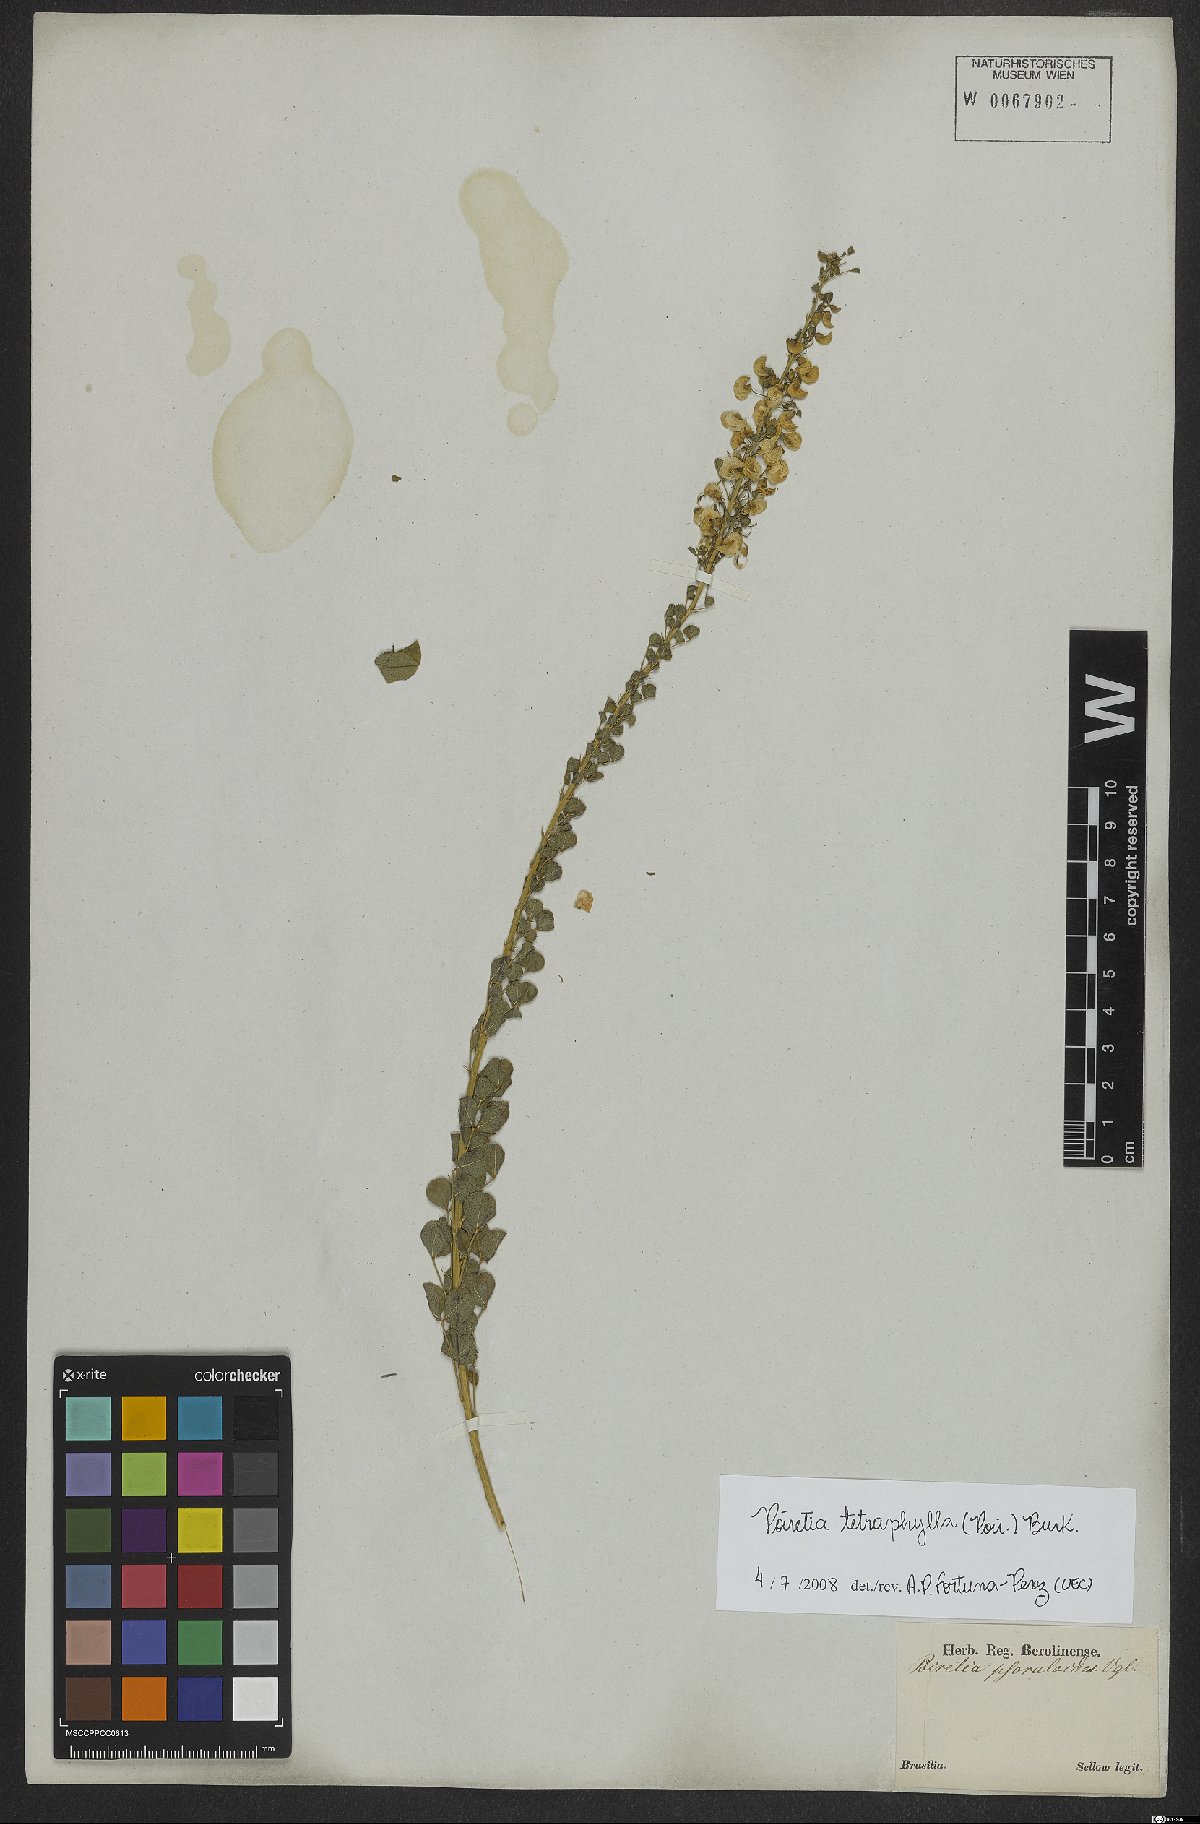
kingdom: Plantae
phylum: Tracheophyta
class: Magnoliopsida
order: Fabales
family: Fabaceae
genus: Poiretia
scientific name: Poiretia tetraphylla
